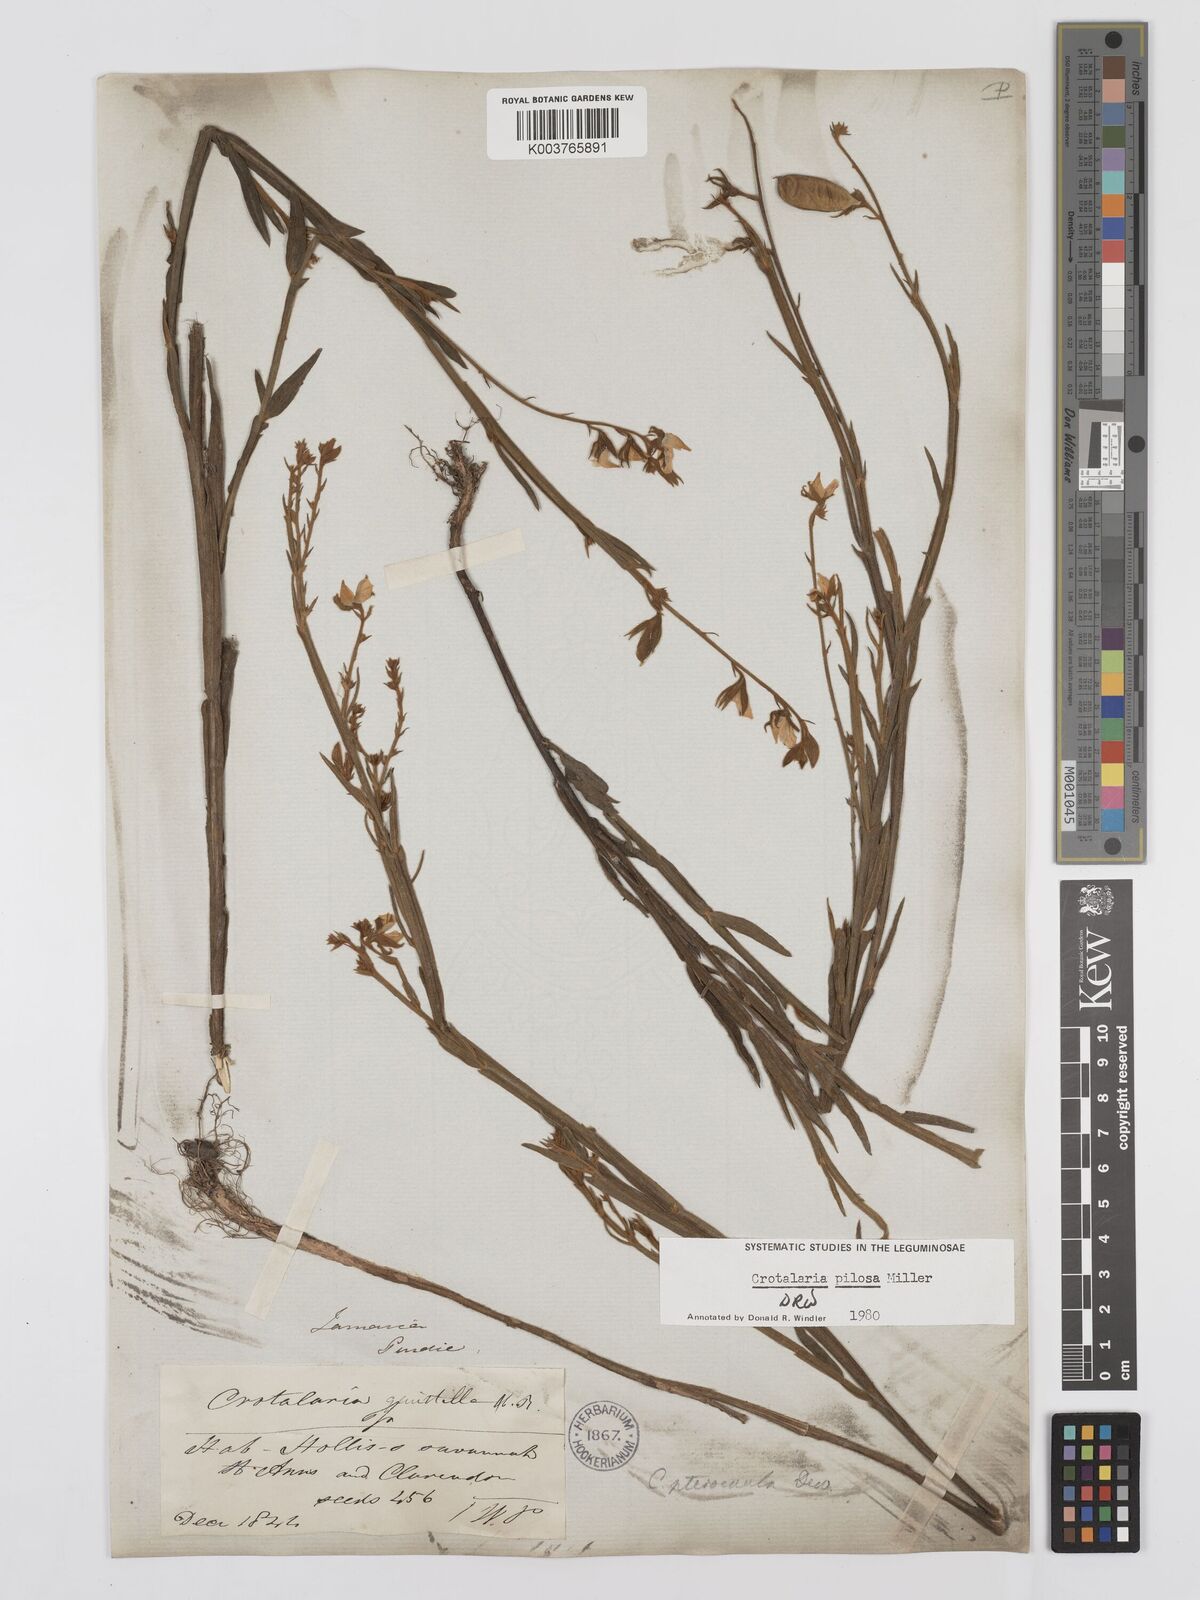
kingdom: Plantae
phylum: Tracheophyta
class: Magnoliopsida
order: Fabales
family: Fabaceae
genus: Crotalaria
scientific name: Crotalaria pilosa
